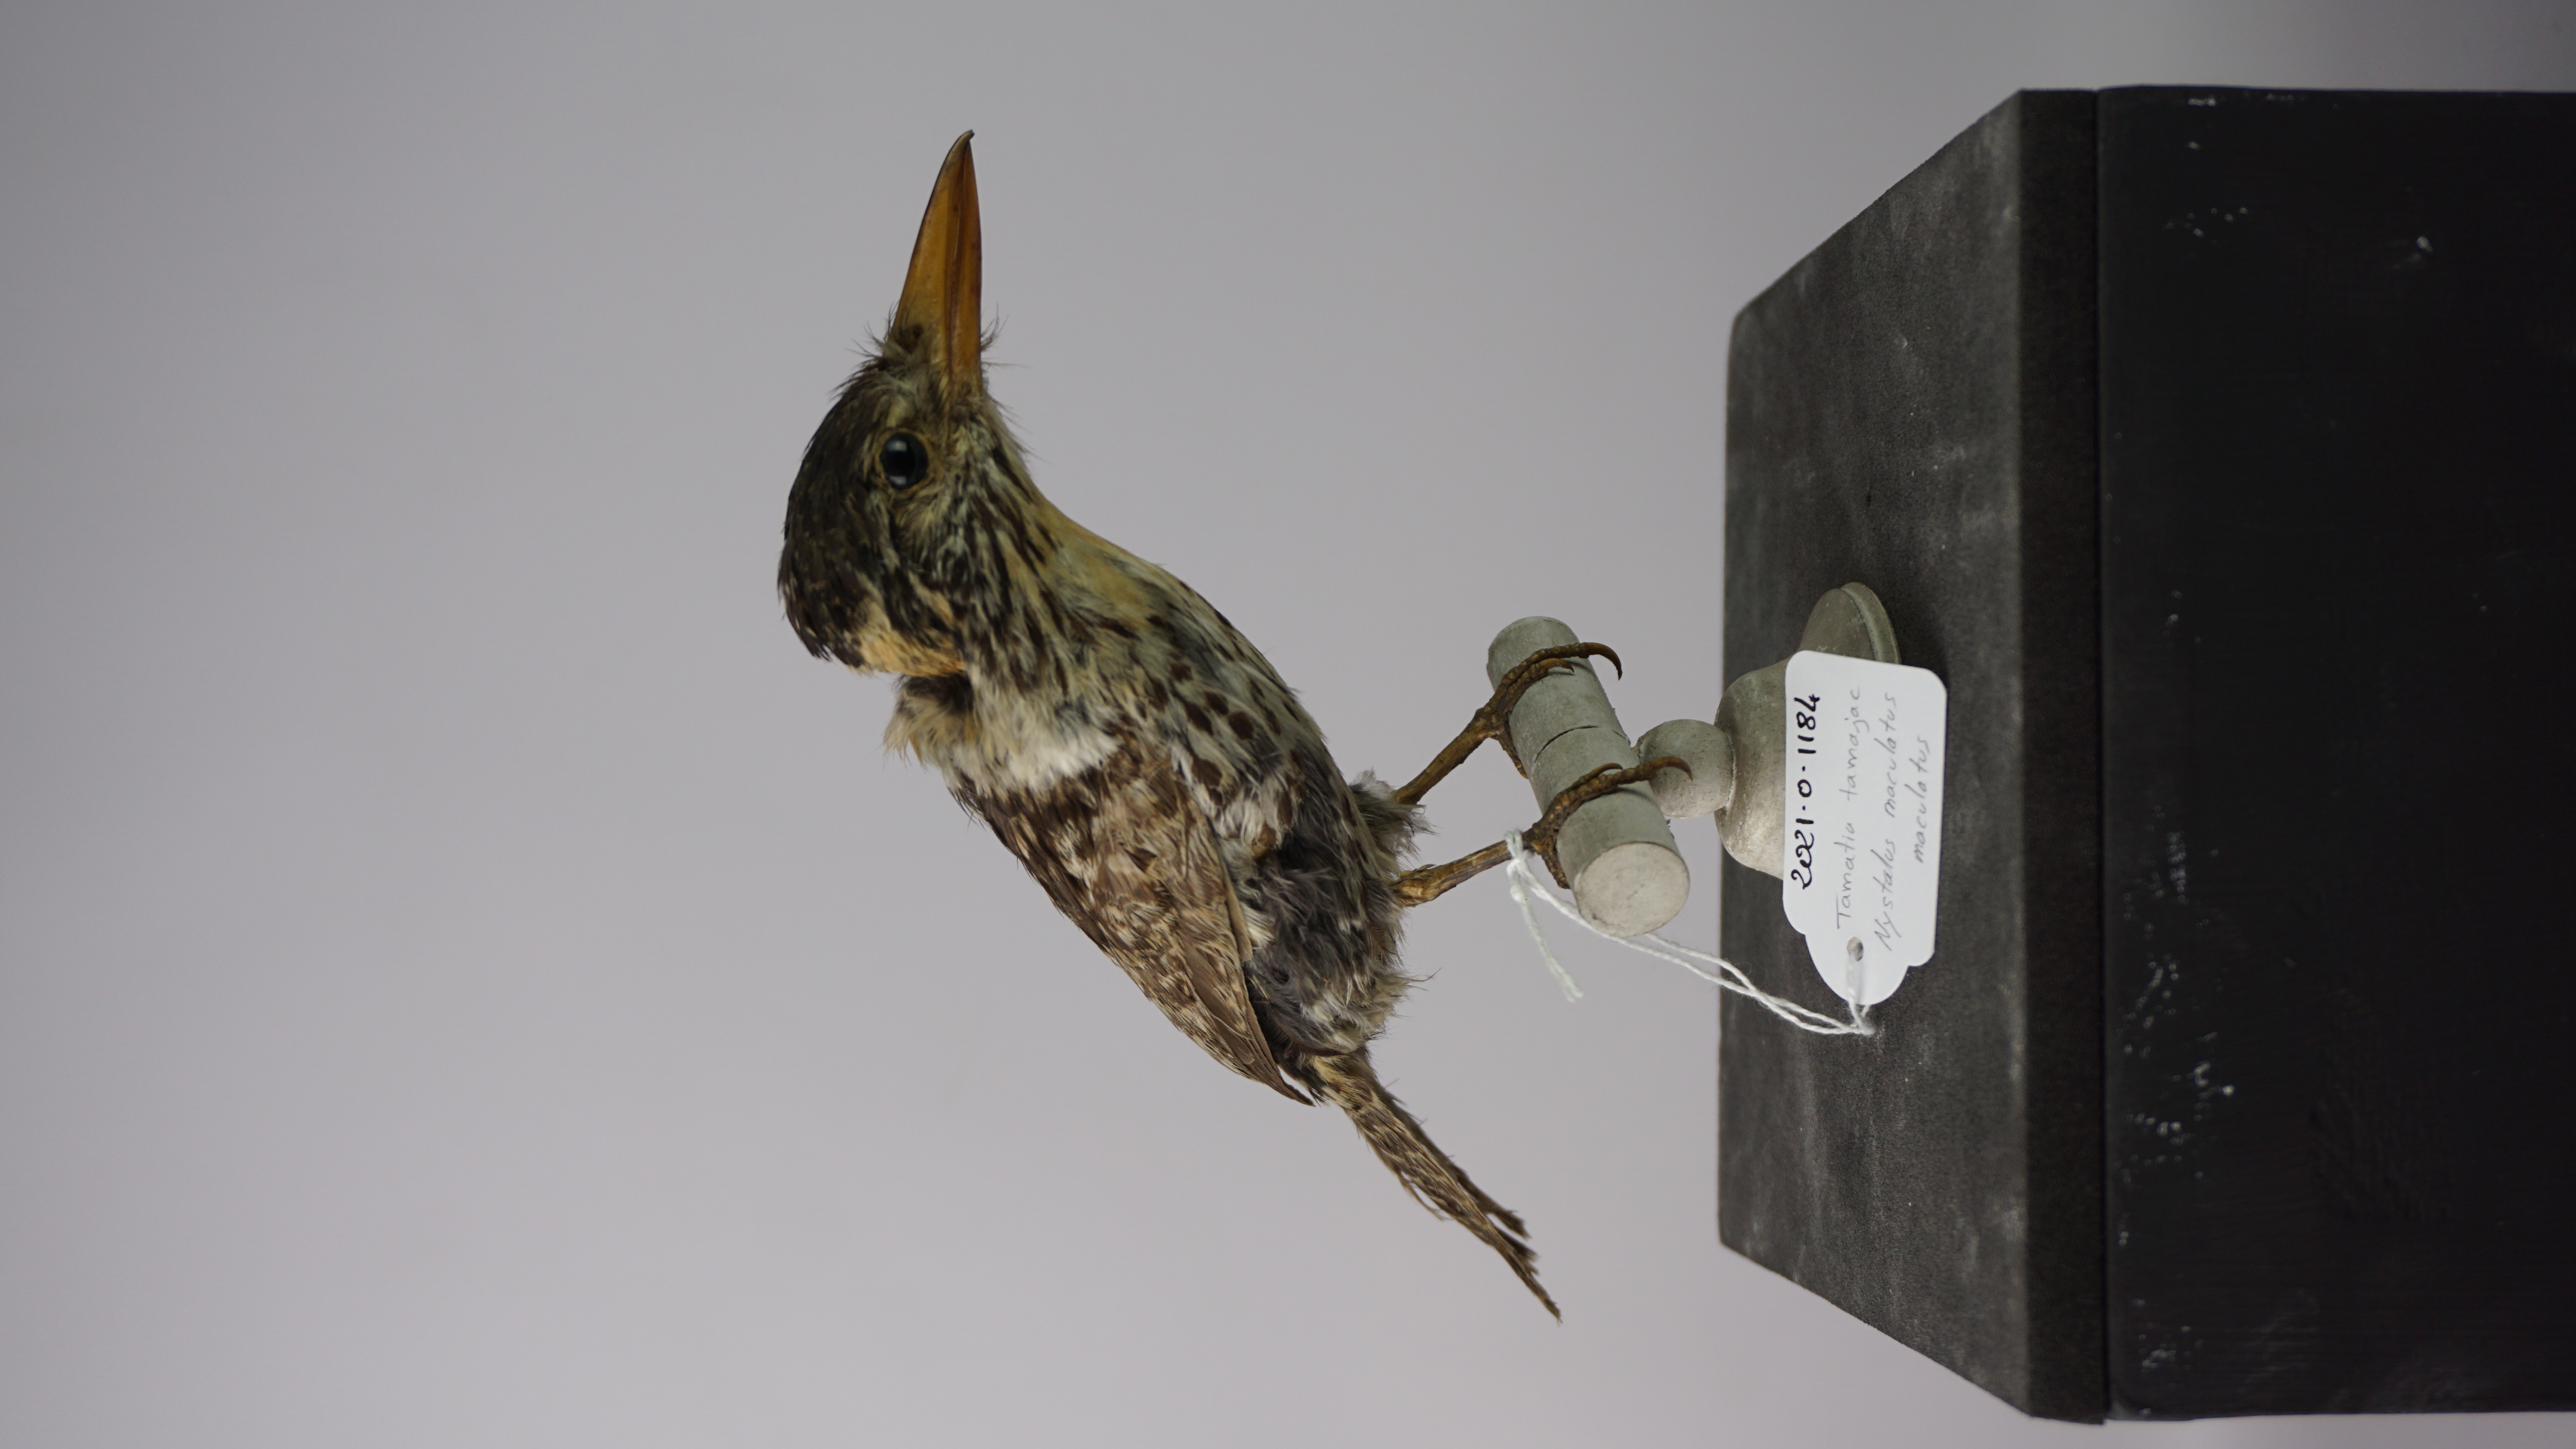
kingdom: Animalia
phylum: Chordata
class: Aves
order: Piciformes
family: Bucconidae
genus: Nystalus
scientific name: Nystalus maculatus
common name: Caatinga puffbird
